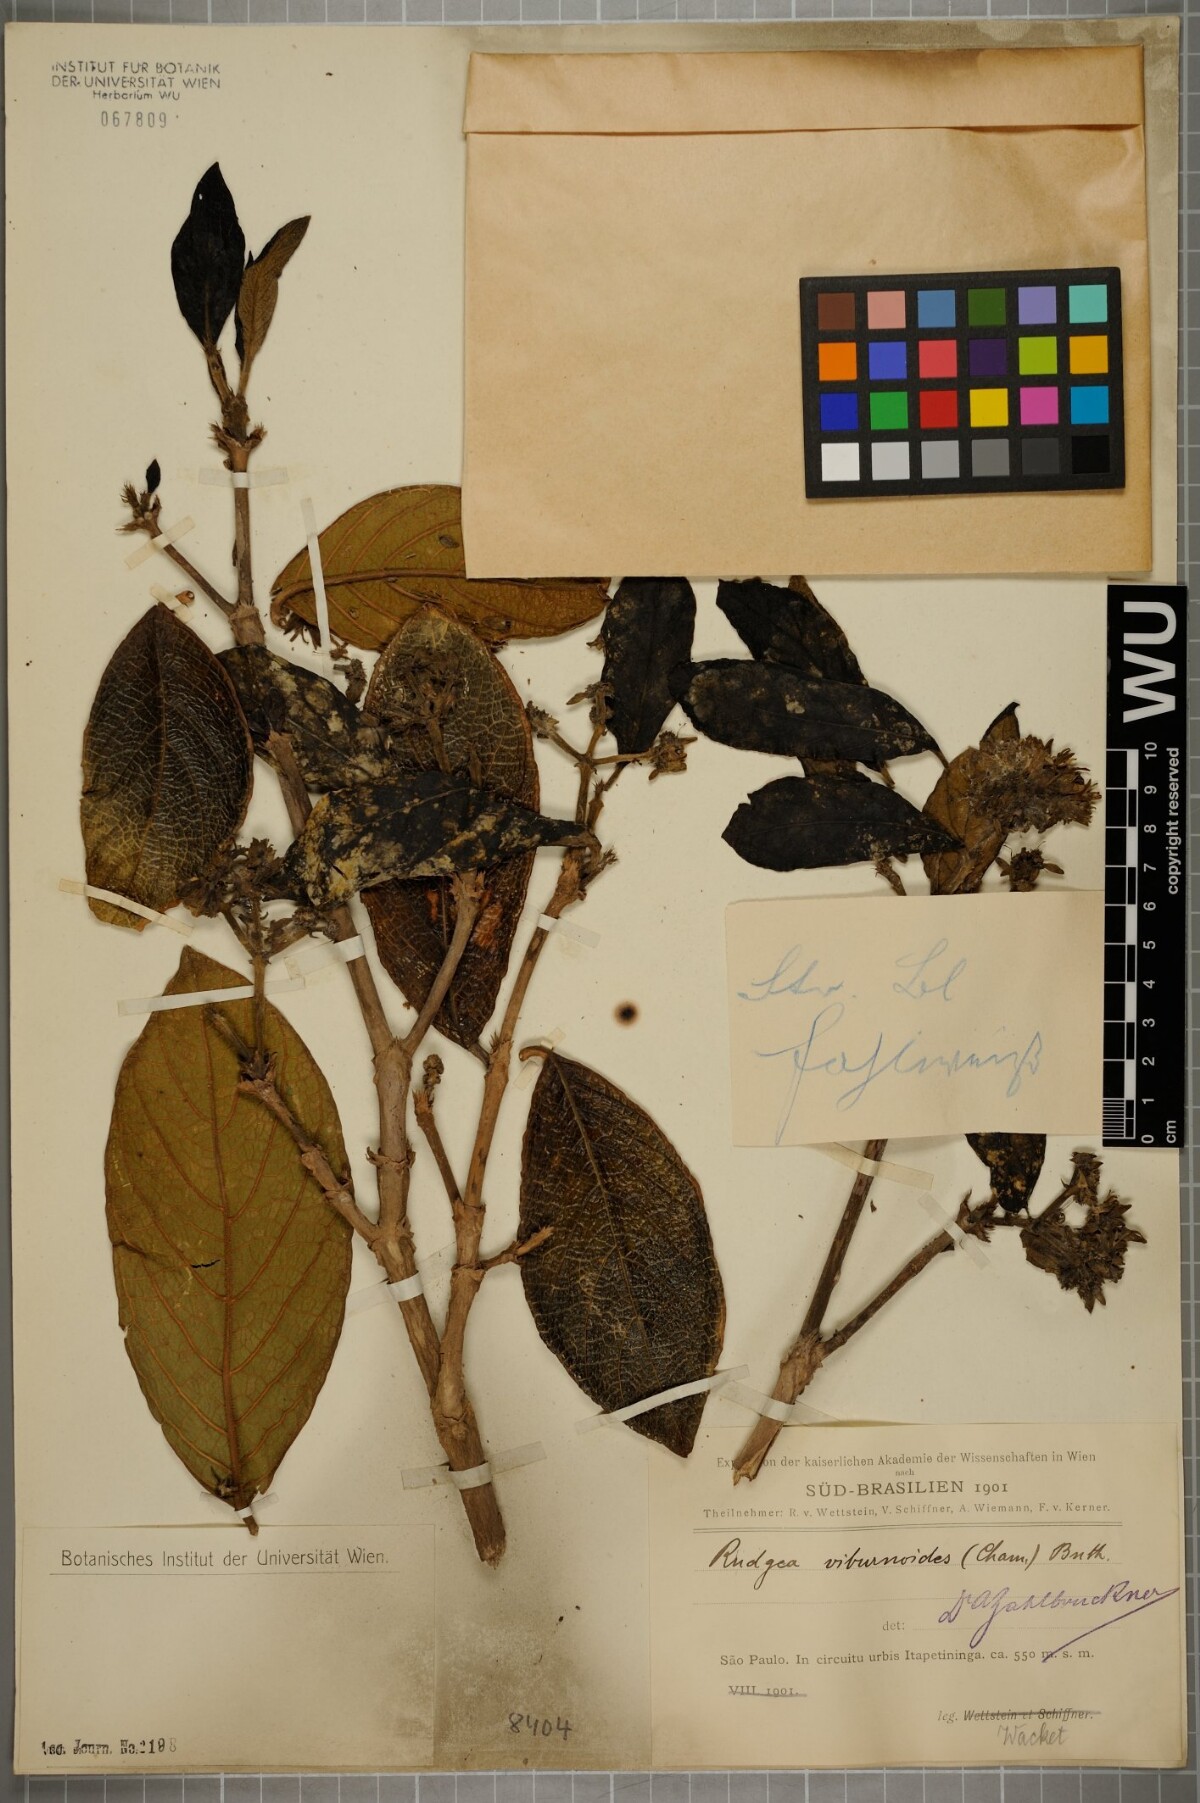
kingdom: Plantae
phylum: Tracheophyta
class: Magnoliopsida
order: Gentianales
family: Rubiaceae
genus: Rudgea
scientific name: Rudgea viburnoides
